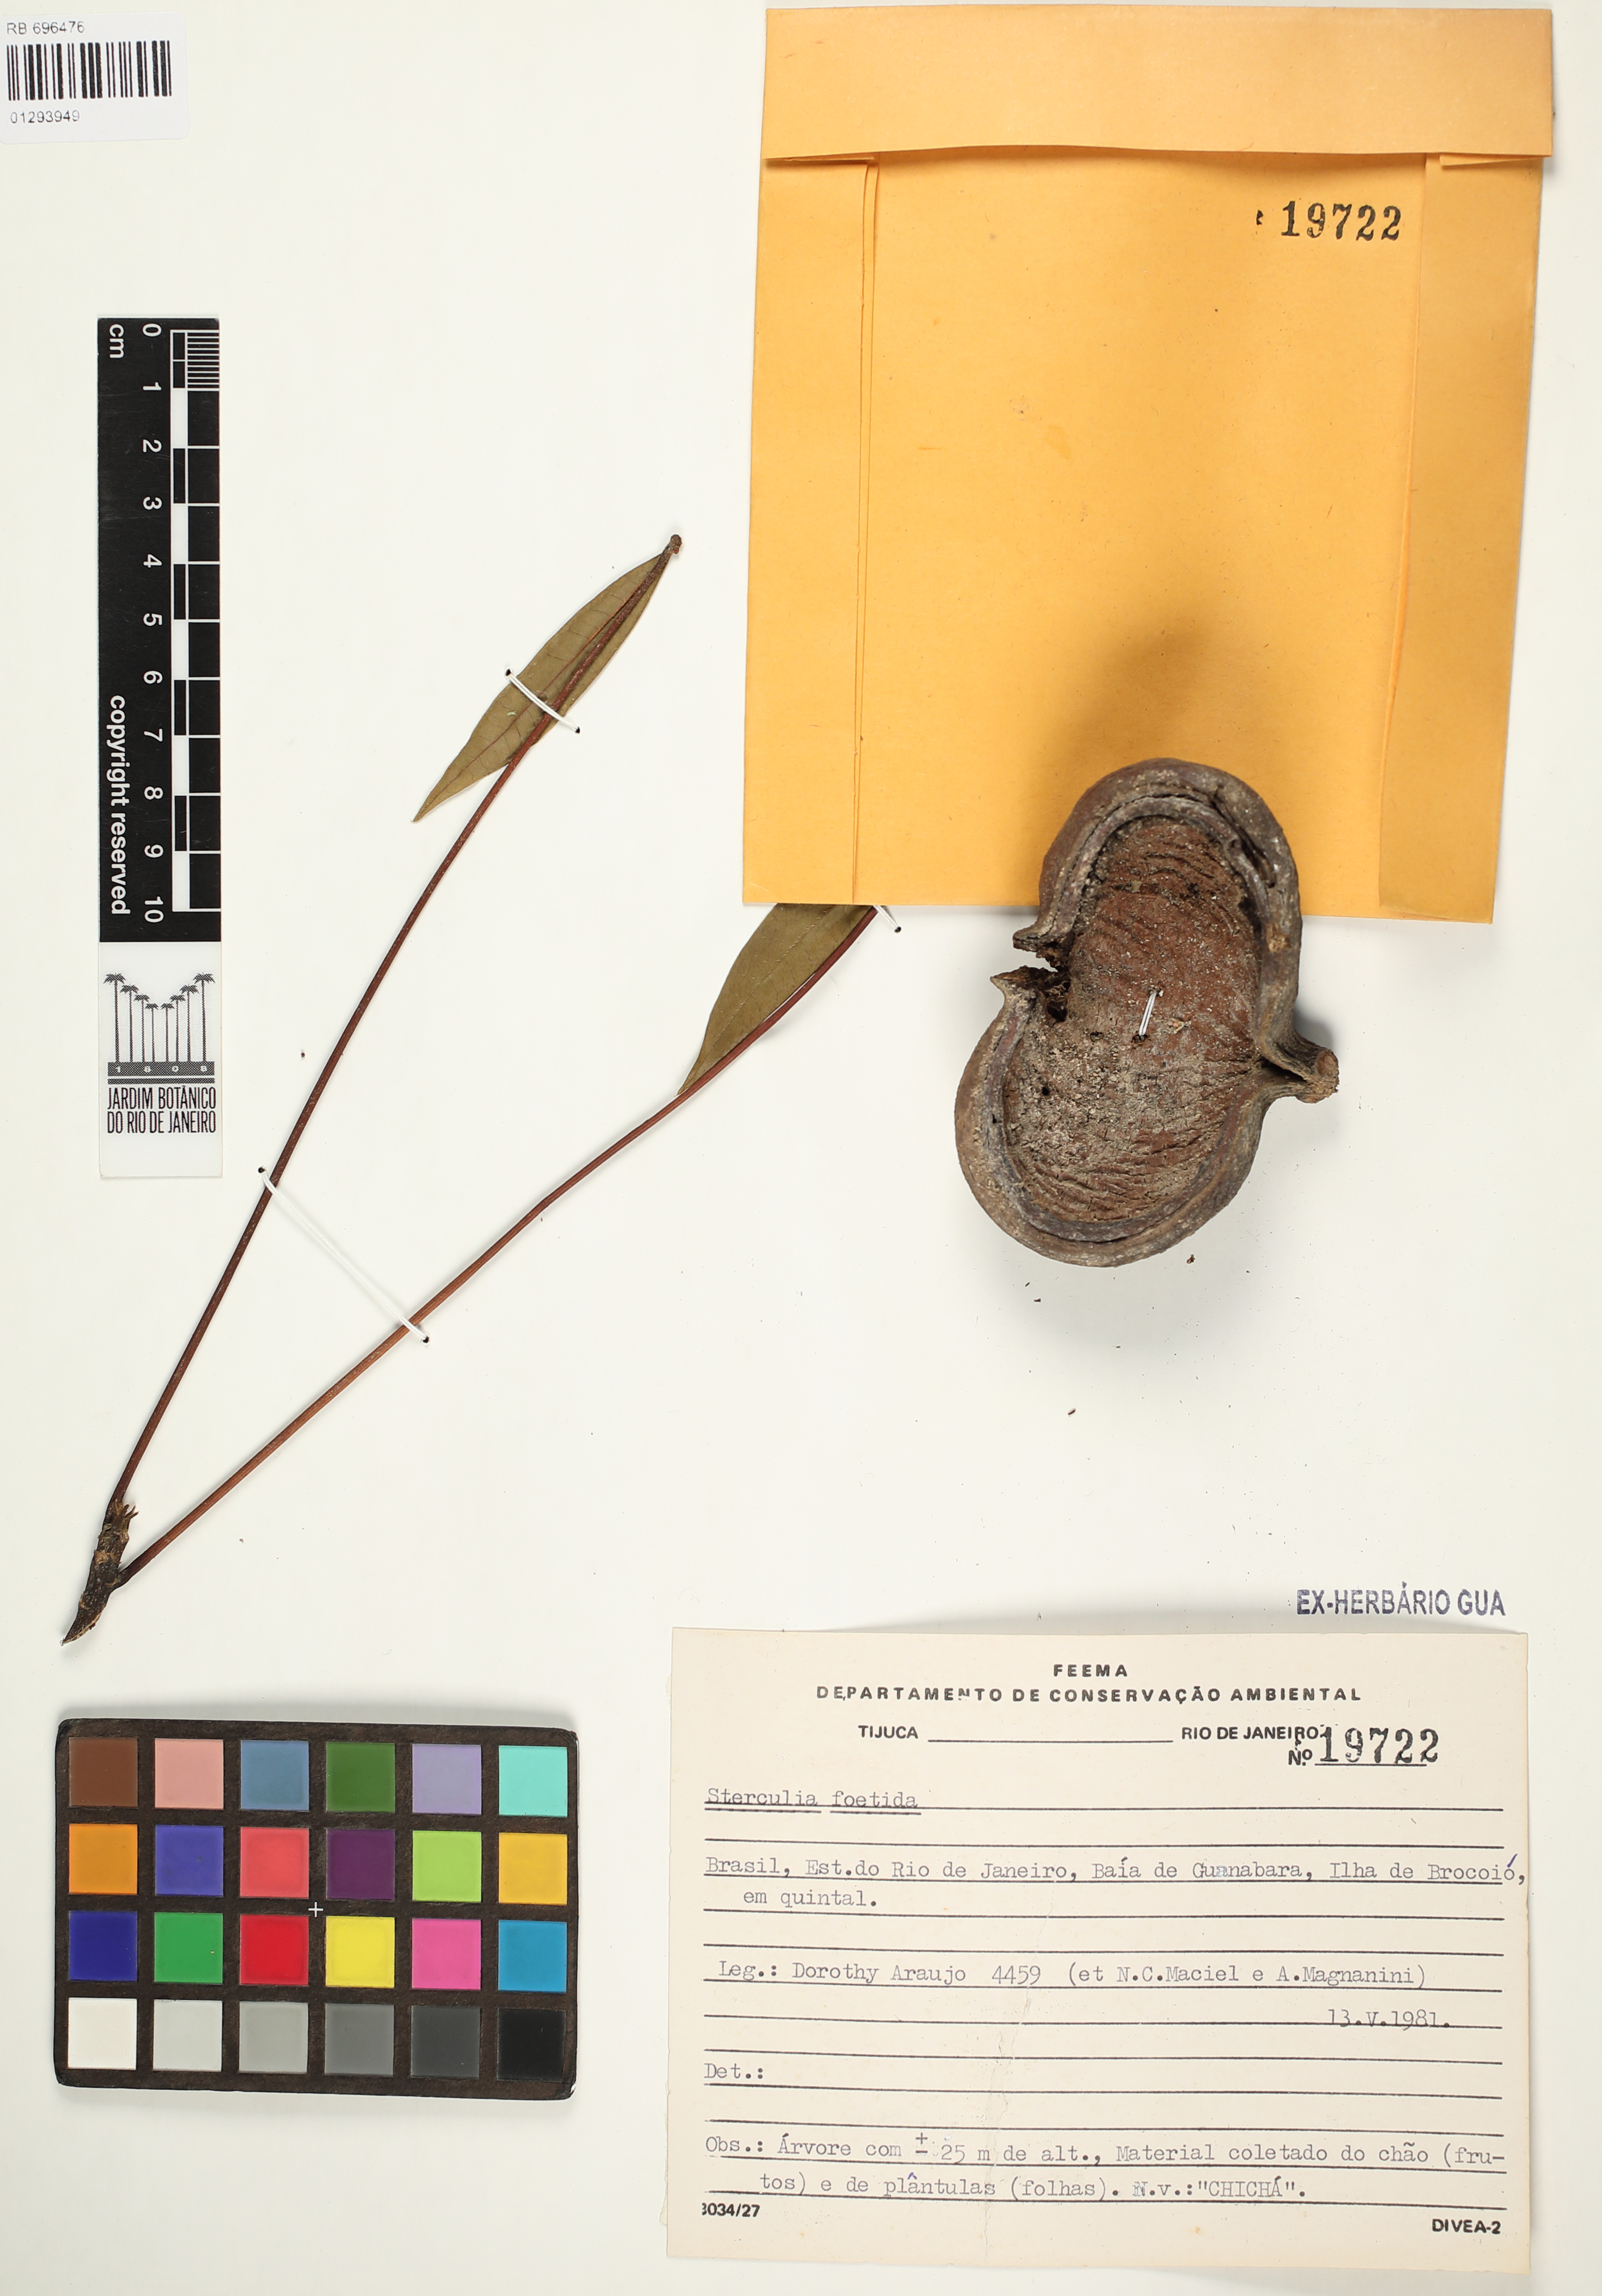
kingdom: Plantae
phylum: Tracheophyta
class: Magnoliopsida
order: Malvales
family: Malvaceae
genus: Sterculia
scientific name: Sterculia foetida
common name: Hazel sterculia
